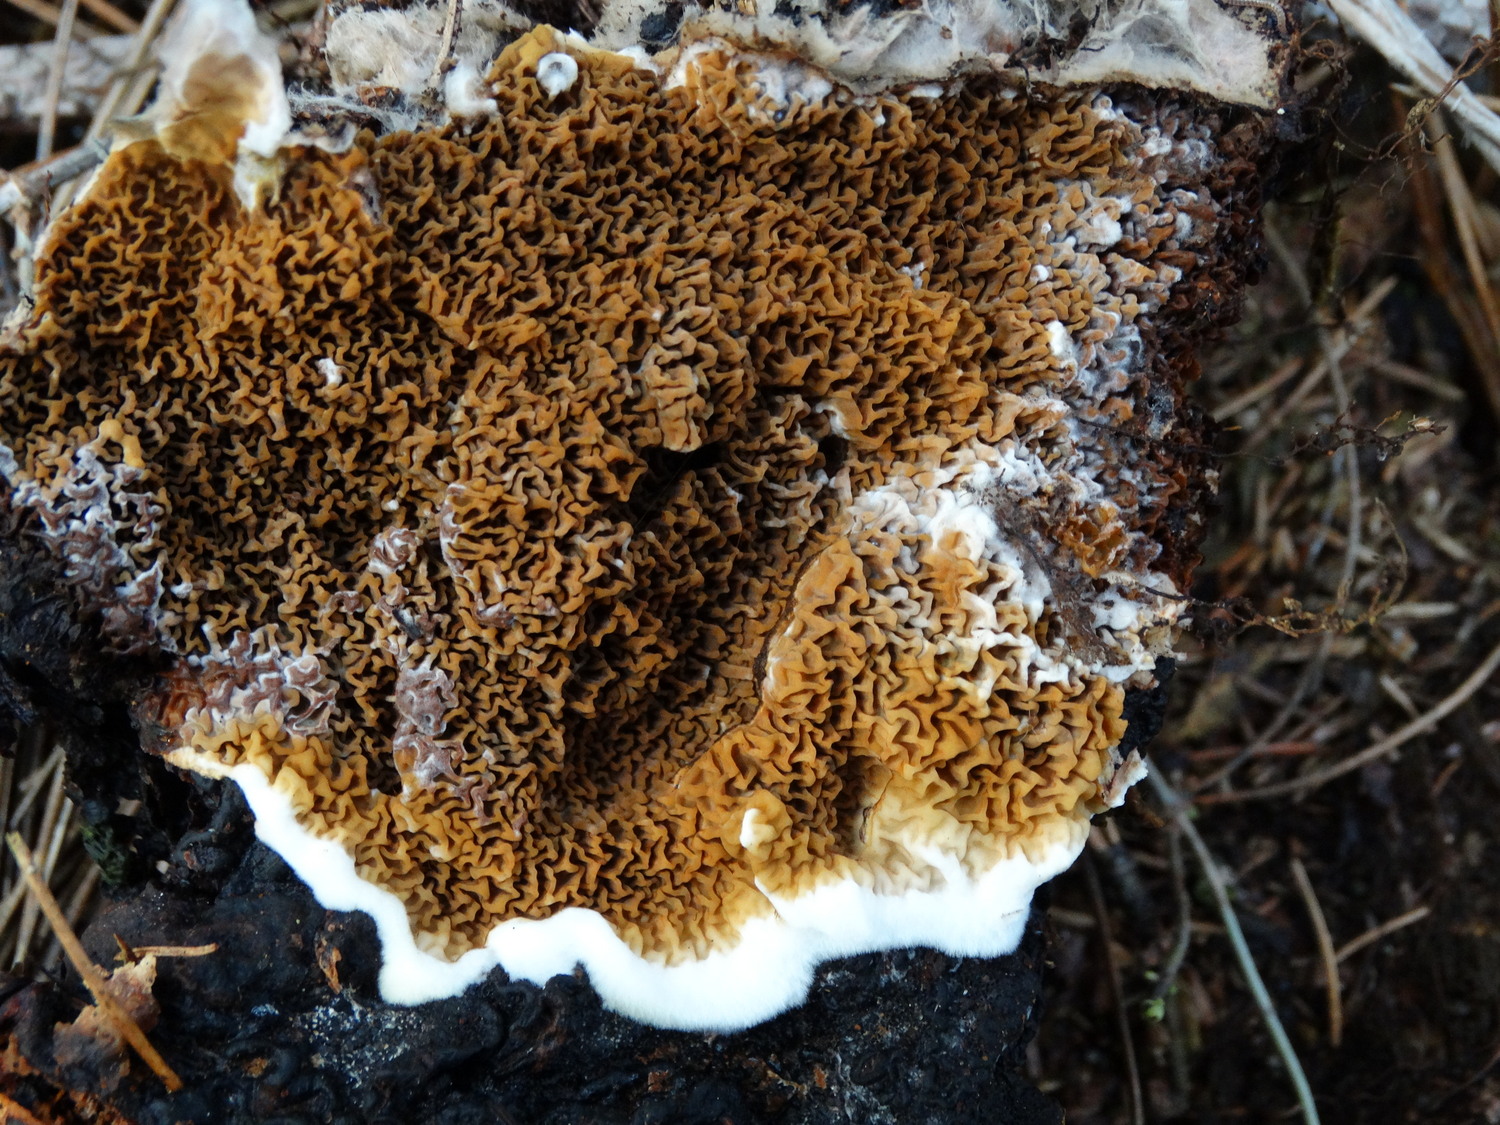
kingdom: Fungi
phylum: Basidiomycota
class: Agaricomycetes
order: Boletales
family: Serpulaceae
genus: Serpula
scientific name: Serpula himantioides
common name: tyndkødet hussvamp
